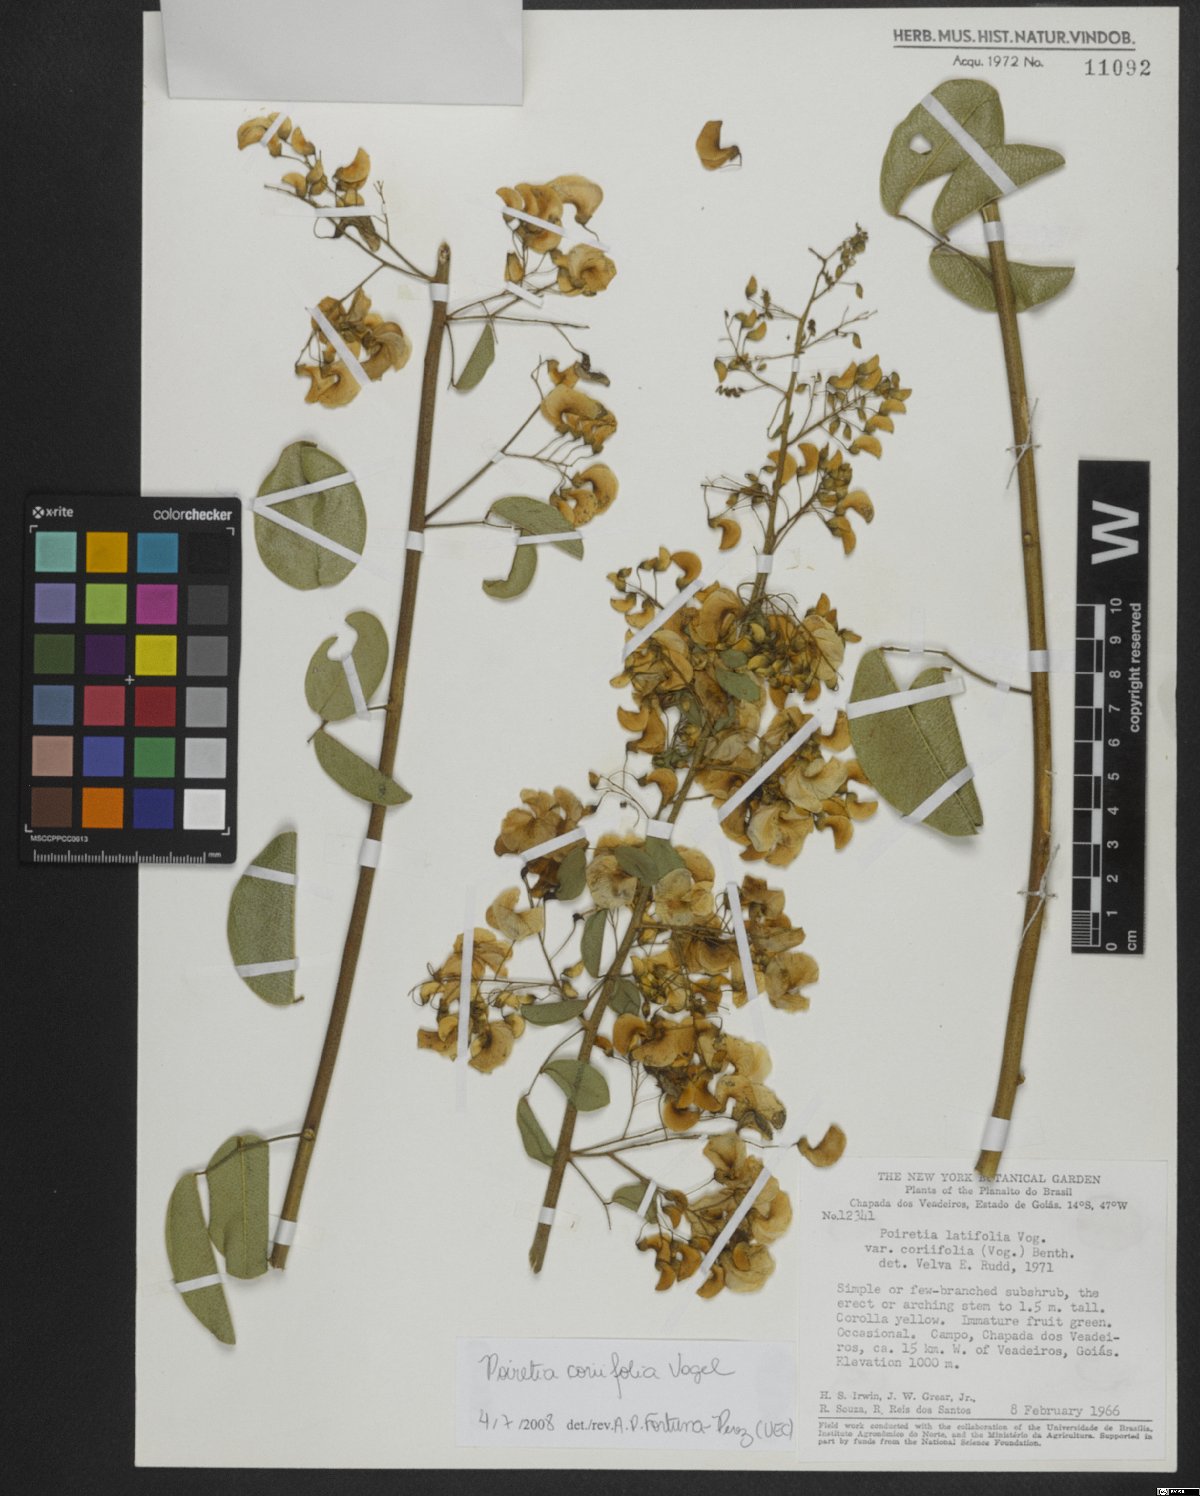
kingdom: Plantae
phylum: Tracheophyta
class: Magnoliopsida
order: Fabales
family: Fabaceae
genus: Poiretia
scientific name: Poiretia coriifolia
